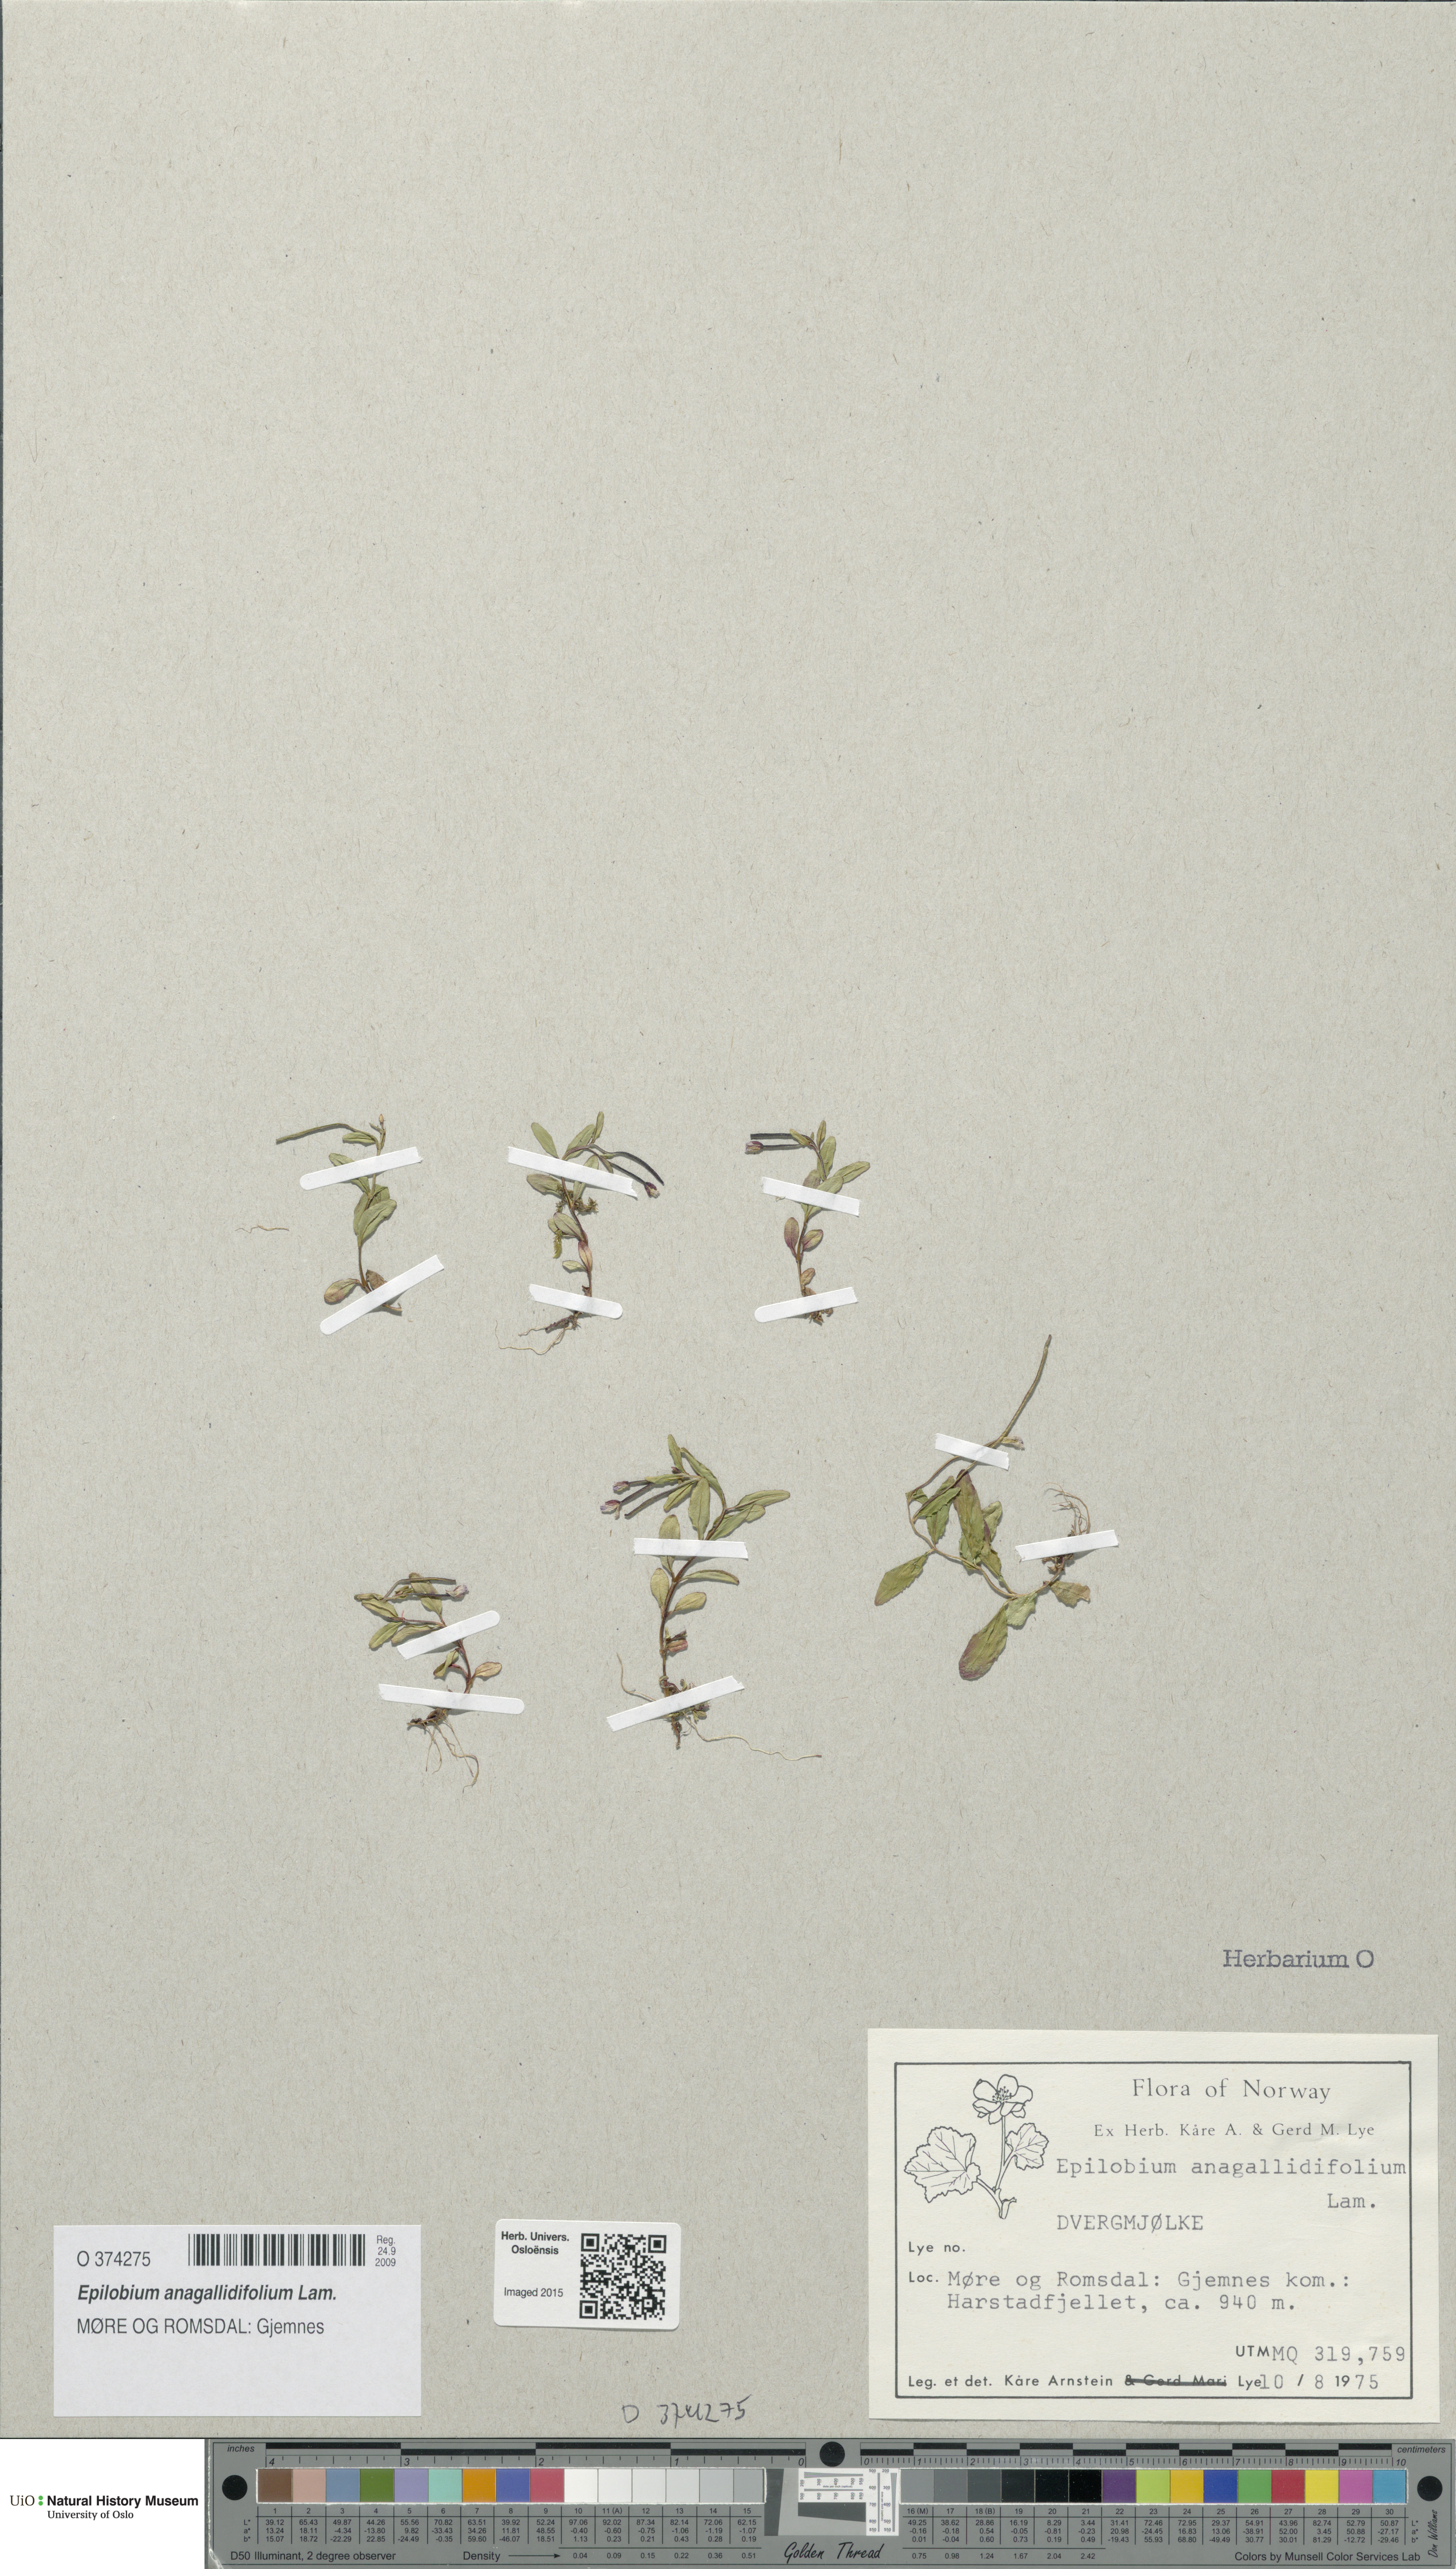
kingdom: Plantae
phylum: Tracheophyta
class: Magnoliopsida
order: Myrtales
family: Onagraceae
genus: Epilobium
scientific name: Epilobium anagallidifolium
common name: Alpine willowherb
